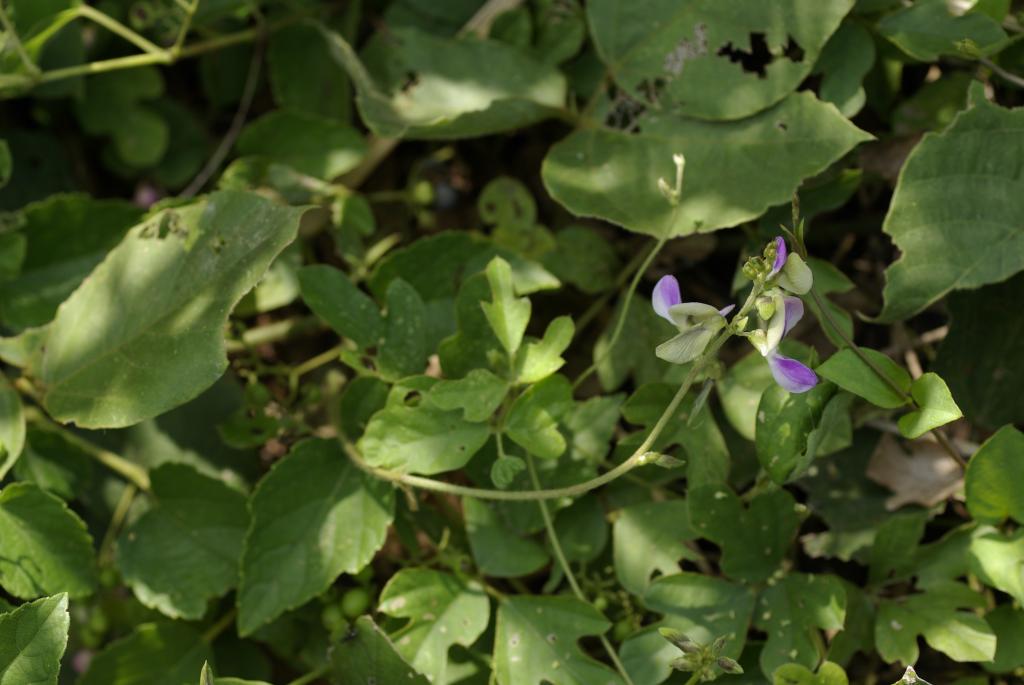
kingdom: Plantae
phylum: Tracheophyta
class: Magnoliopsida
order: Fabales
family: Fabaceae
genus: Neustanthus
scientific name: Neustanthus phaseoloides
